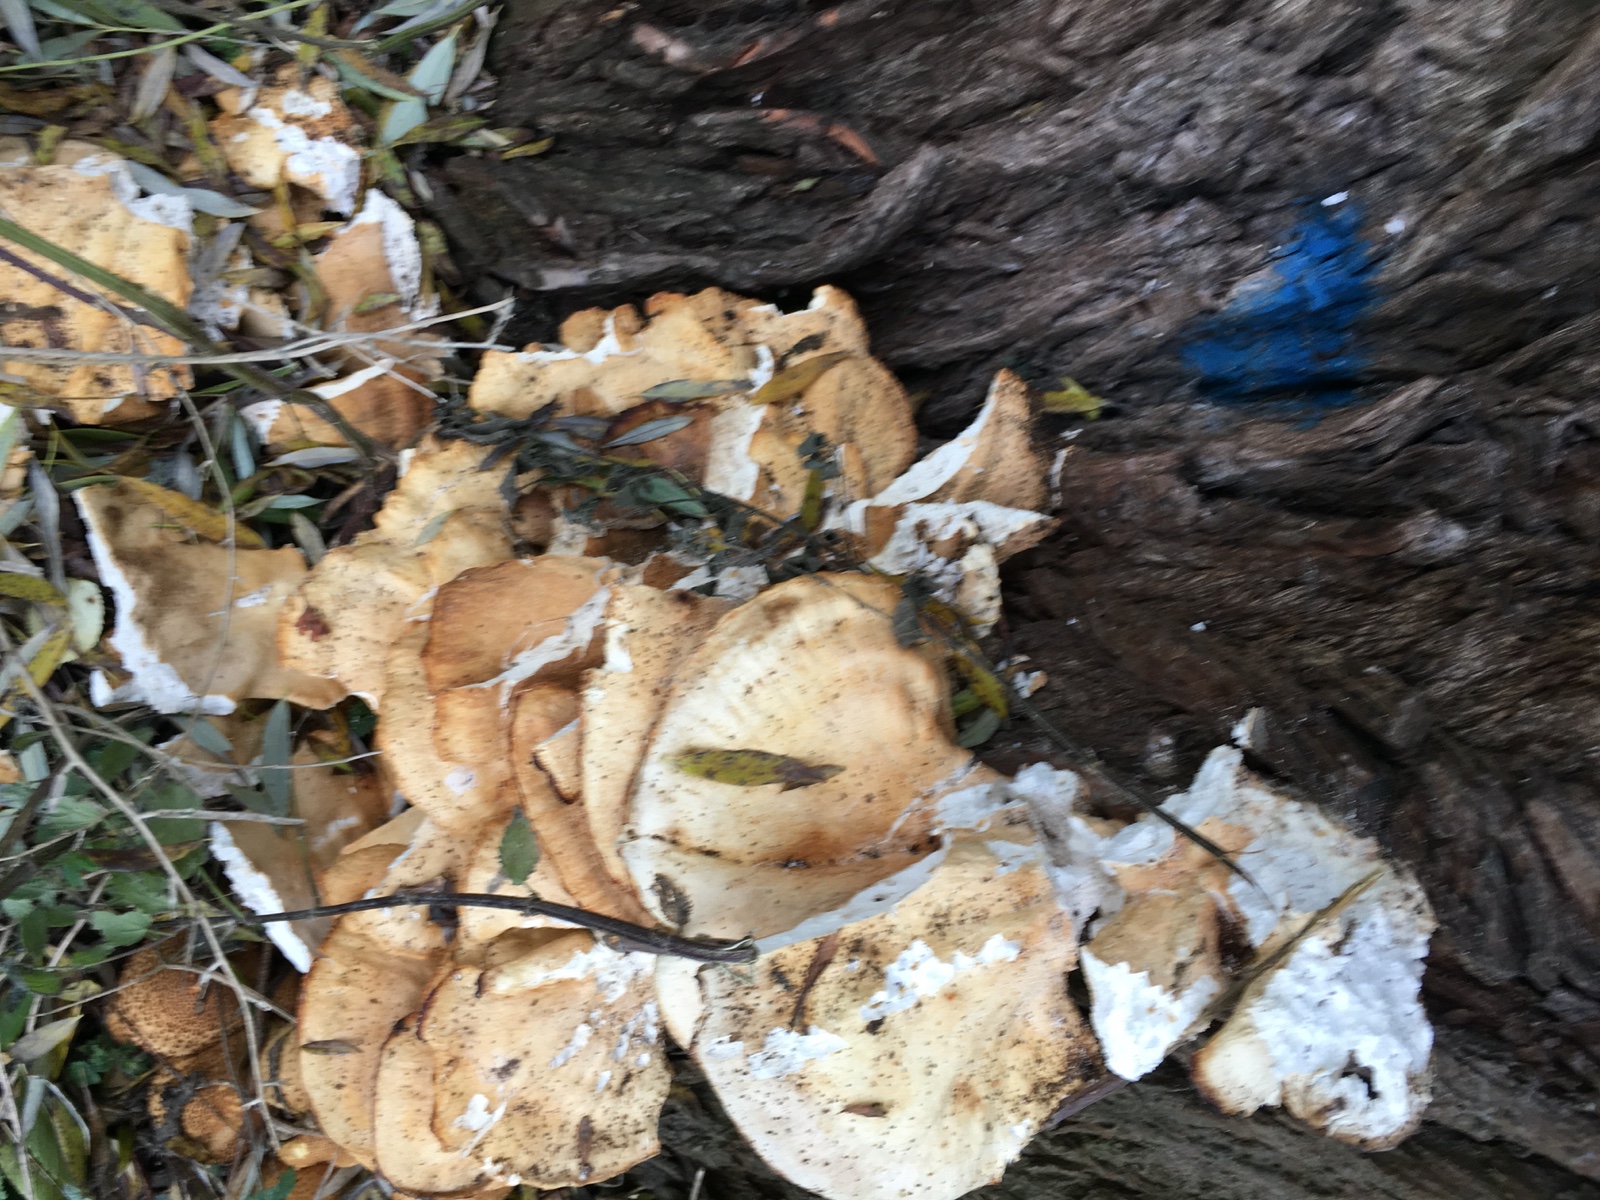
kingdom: Fungi
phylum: Basidiomycota
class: Agaricomycetes
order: Polyporales
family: Laetiporaceae
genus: Laetiporus
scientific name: Laetiporus sulphureus
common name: svovlporesvamp
